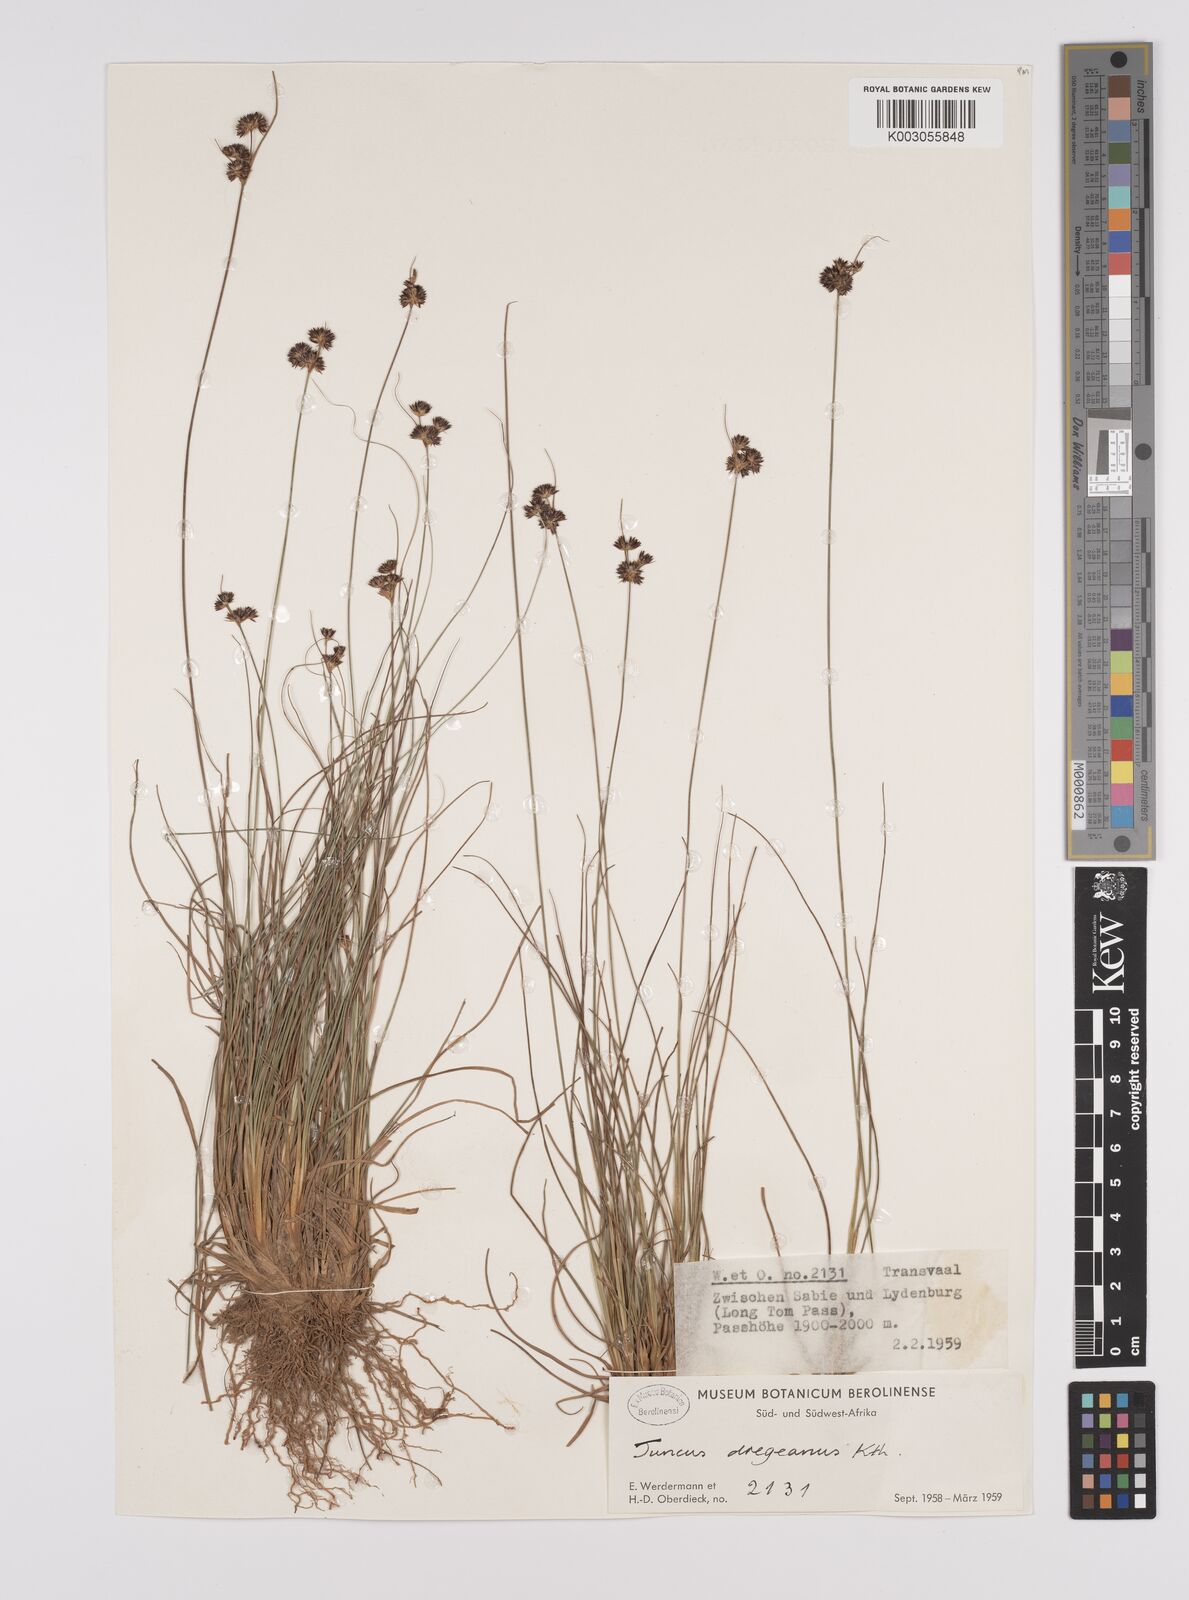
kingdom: Plantae
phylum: Tracheophyta
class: Liliopsida
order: Poales
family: Juncaceae
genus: Juncus
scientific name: Juncus dregeanus
